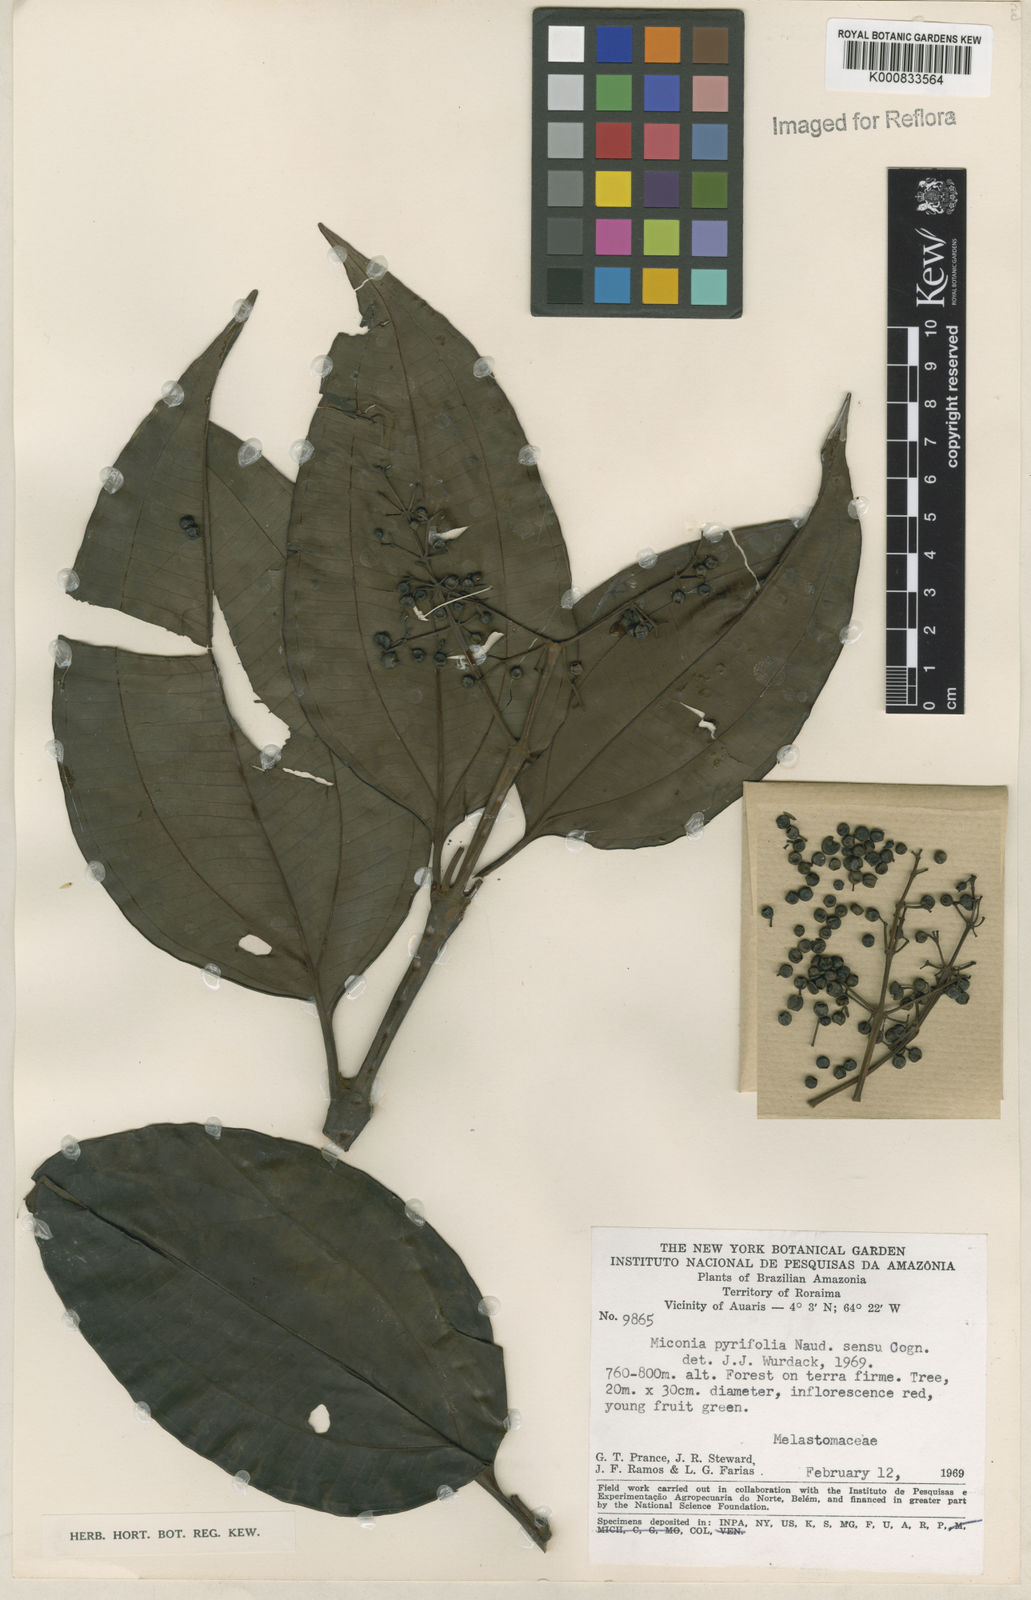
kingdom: Plantae
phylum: Tracheophyta
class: Magnoliopsida
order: Myrtales
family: Melastomataceae
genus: Miconia
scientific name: Miconia pyrifolia
